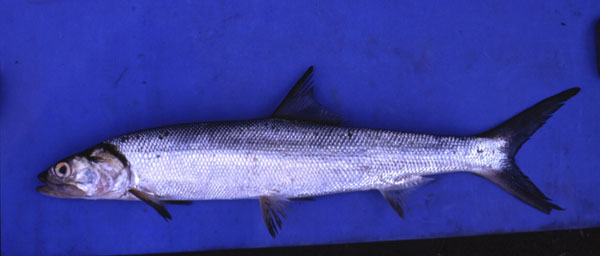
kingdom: Animalia
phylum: Chordata
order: Elopiformes
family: Elopidae
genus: Elops
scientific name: Elops machnata
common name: Ladyfish
